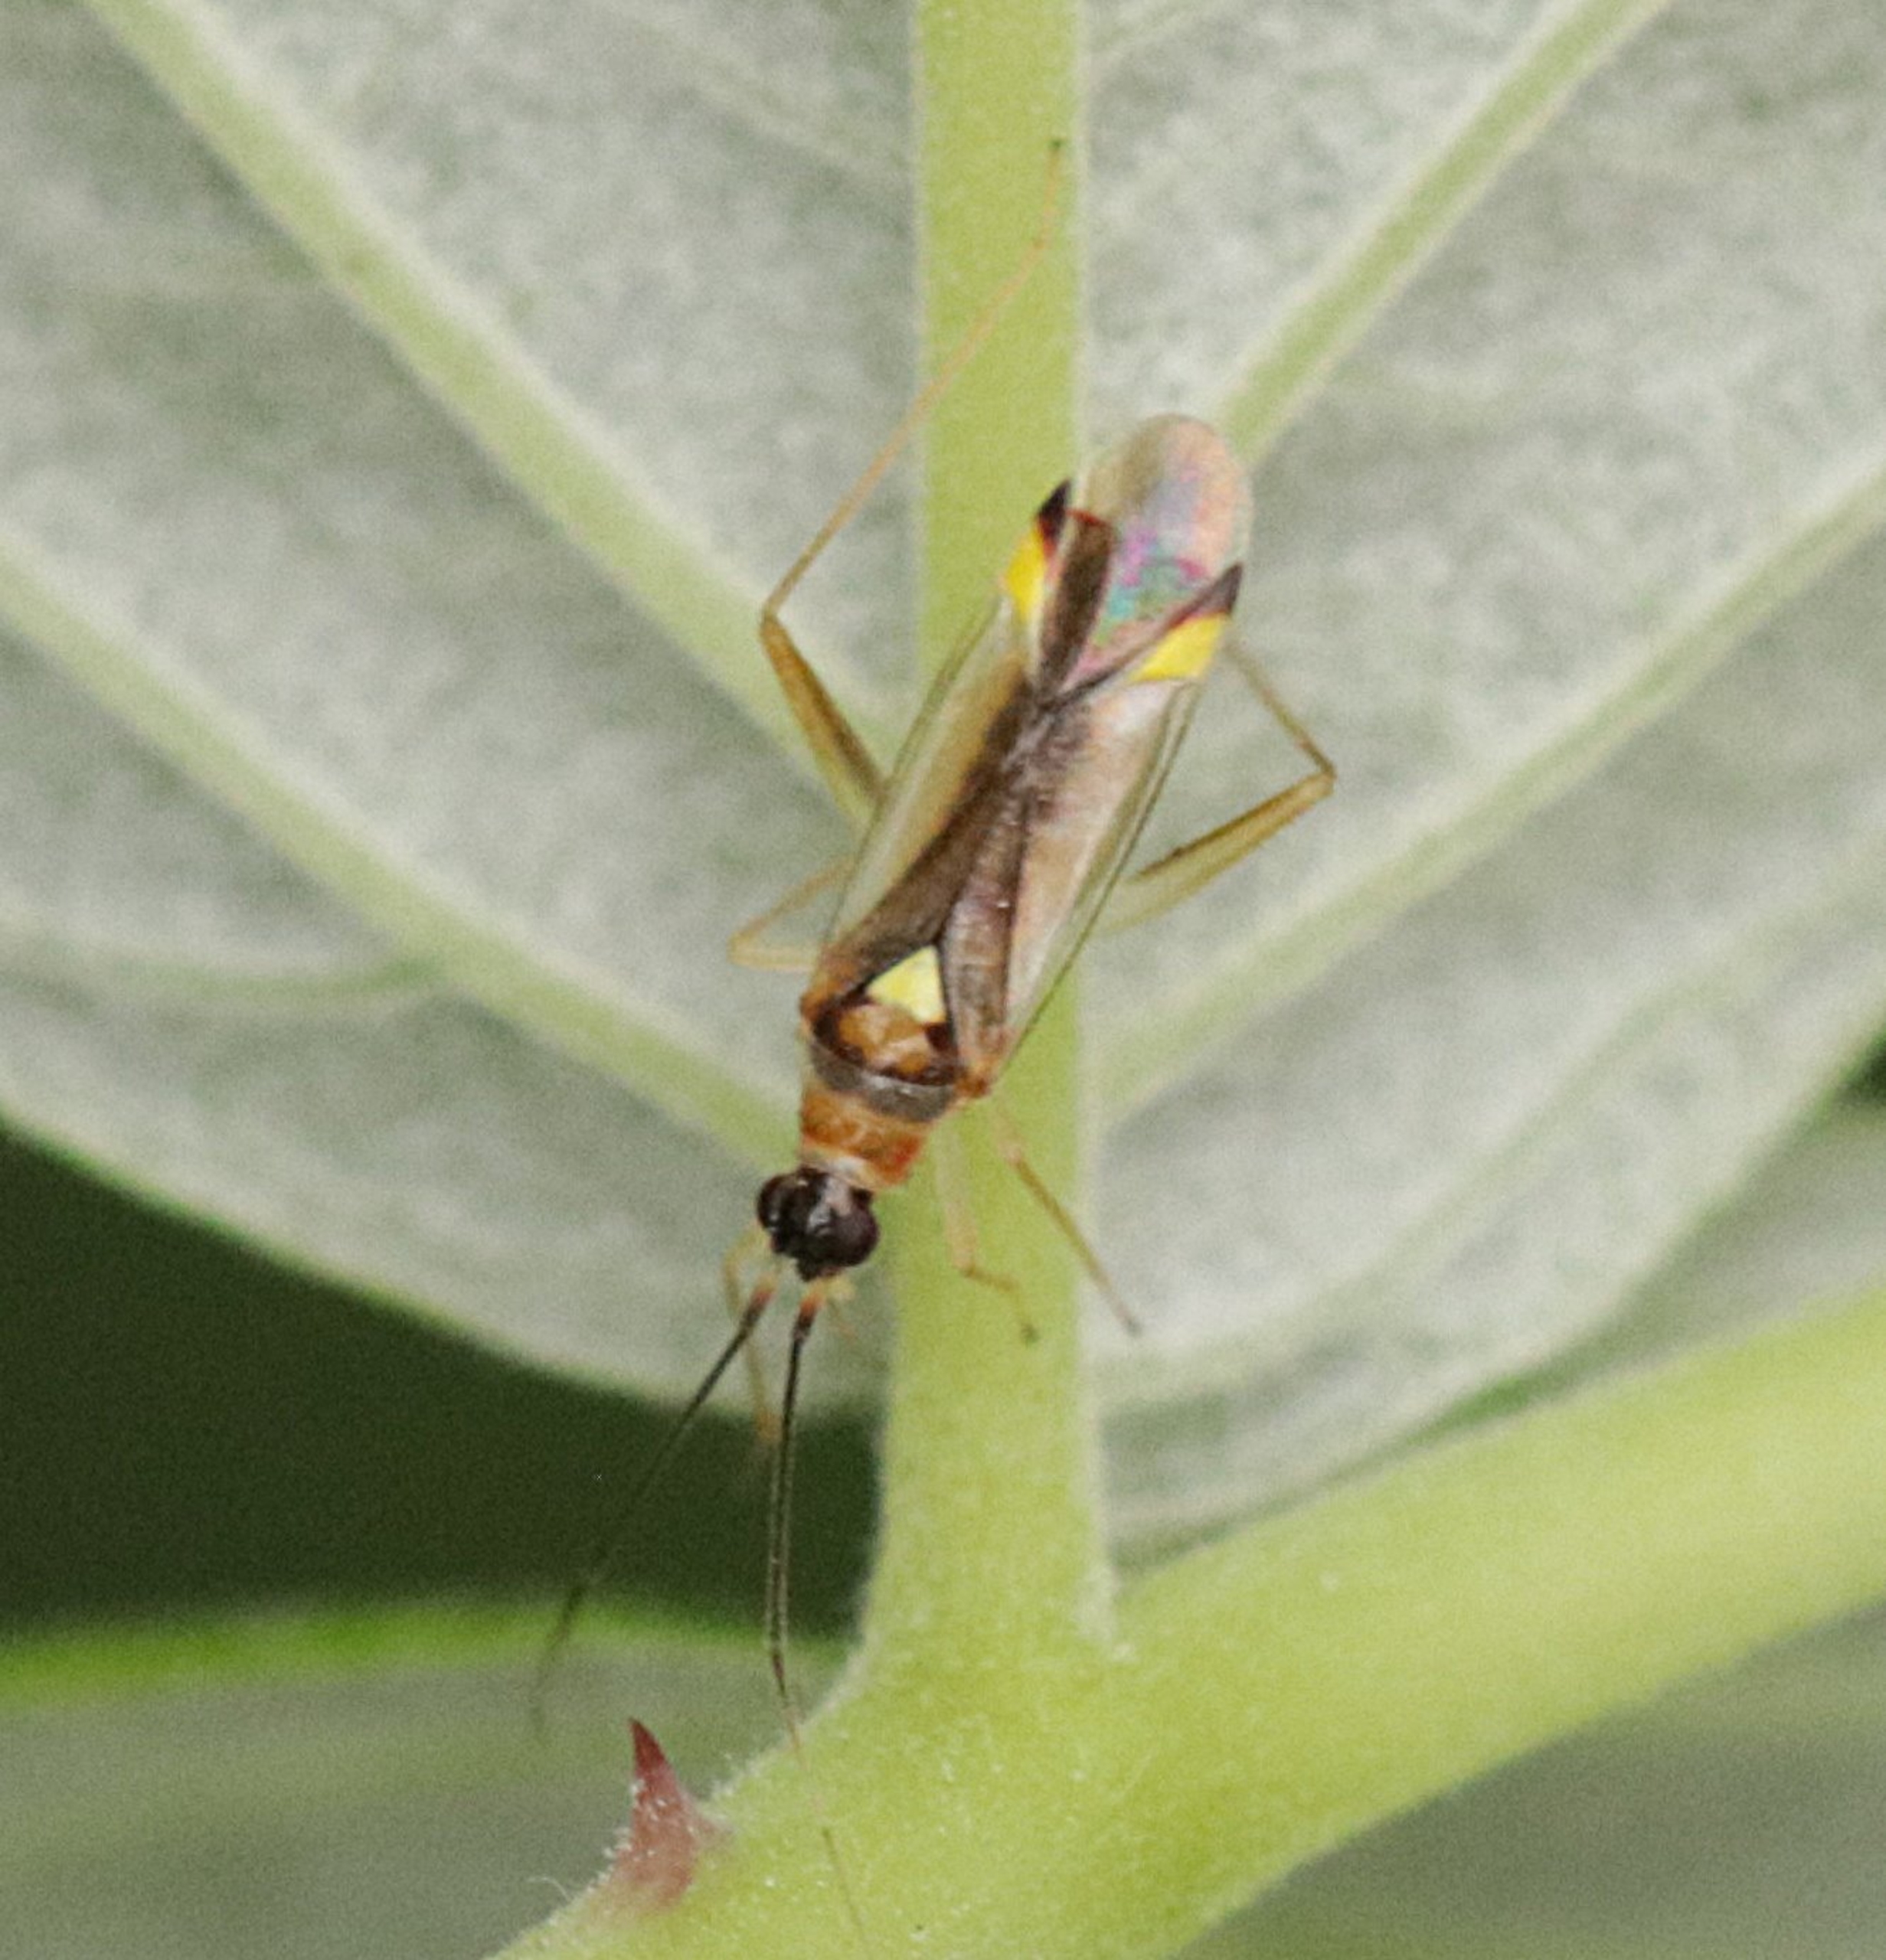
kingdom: Animalia
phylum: Arthropoda
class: Insecta
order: Hemiptera
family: Miridae
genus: Campyloneura
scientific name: Campyloneura virgula
